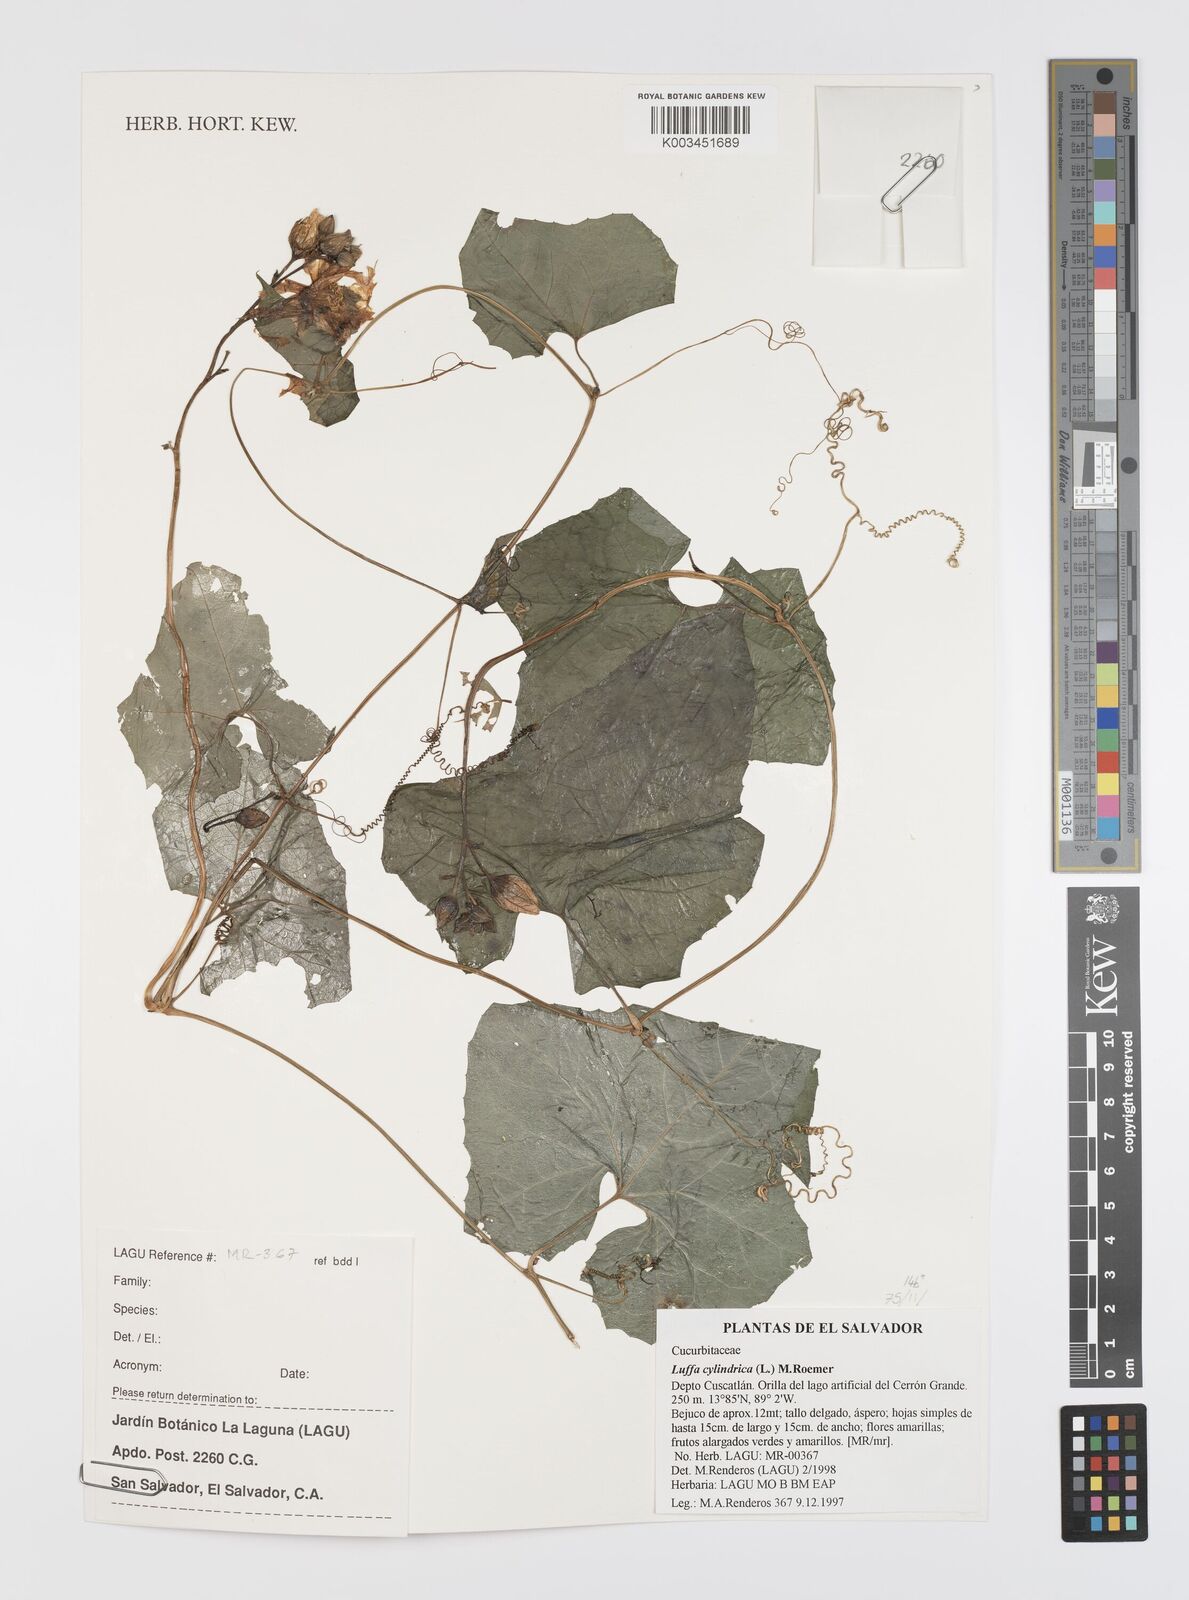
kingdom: Plantae
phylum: Tracheophyta
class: Magnoliopsida
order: Cucurbitales
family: Cucurbitaceae
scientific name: Cucurbitaceae
